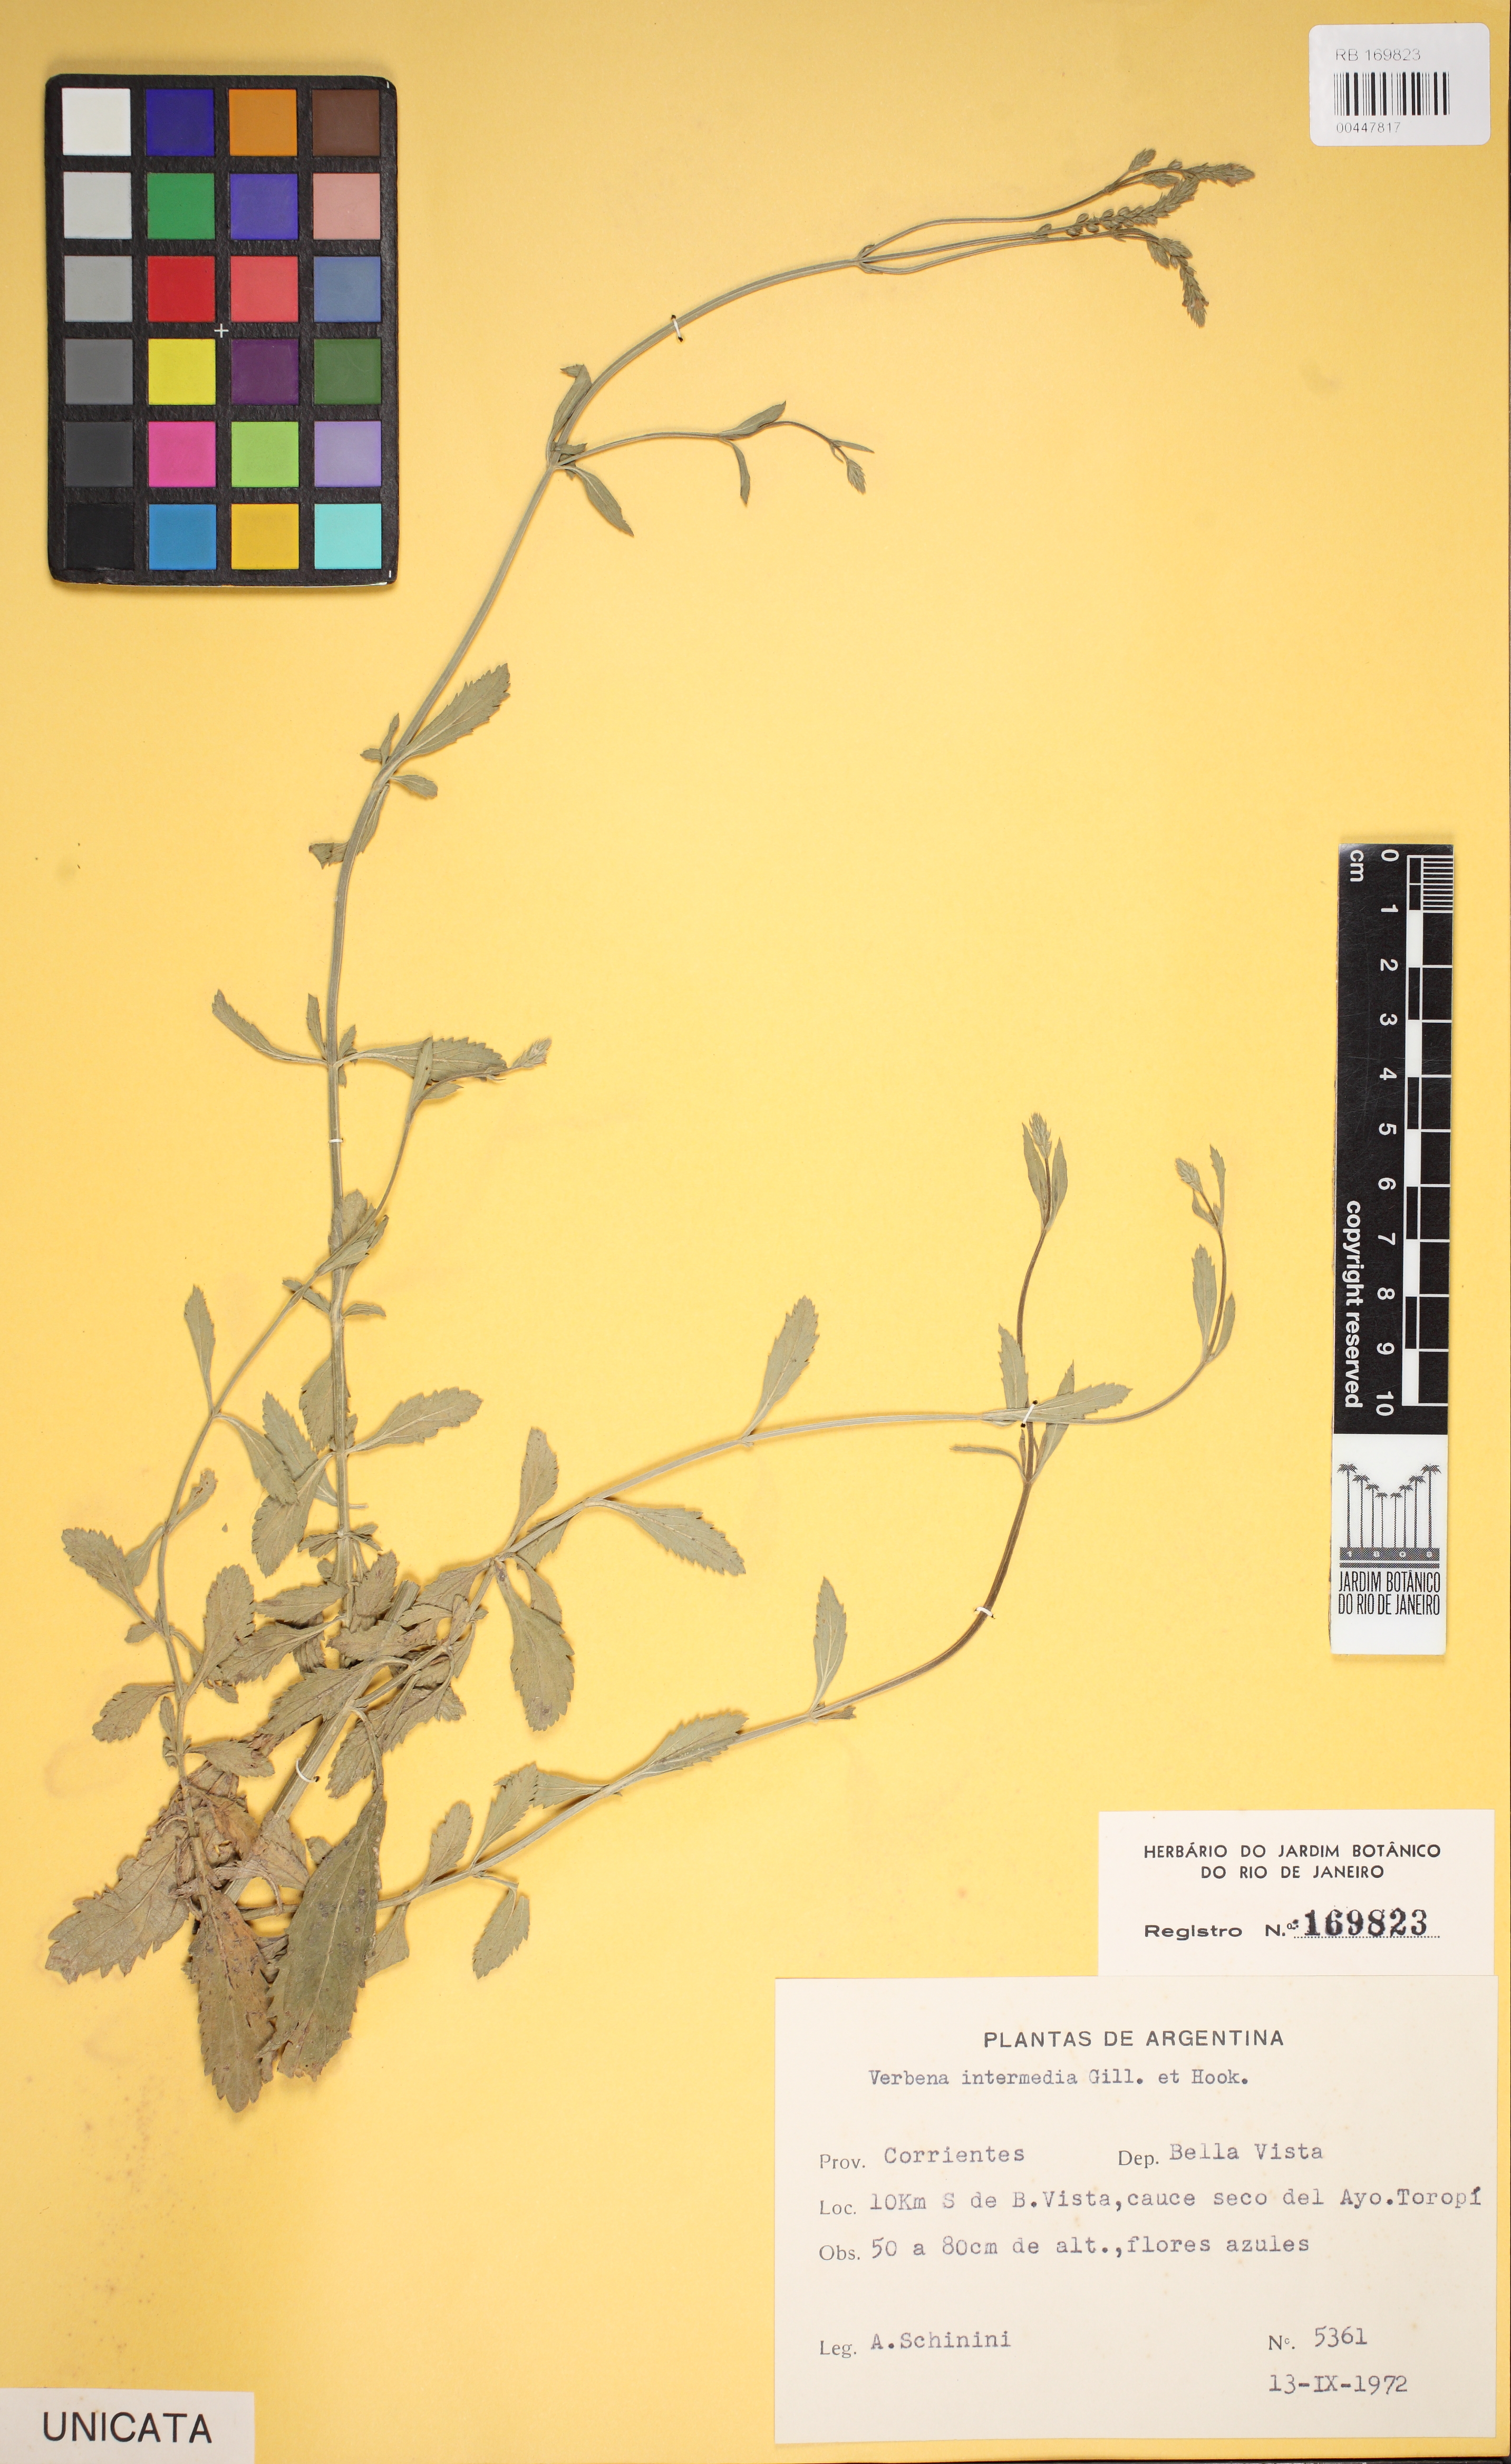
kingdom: Plantae
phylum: Tracheophyta
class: Magnoliopsida
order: Lamiales
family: Verbenaceae
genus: Verbena
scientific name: Verbena intermedia
